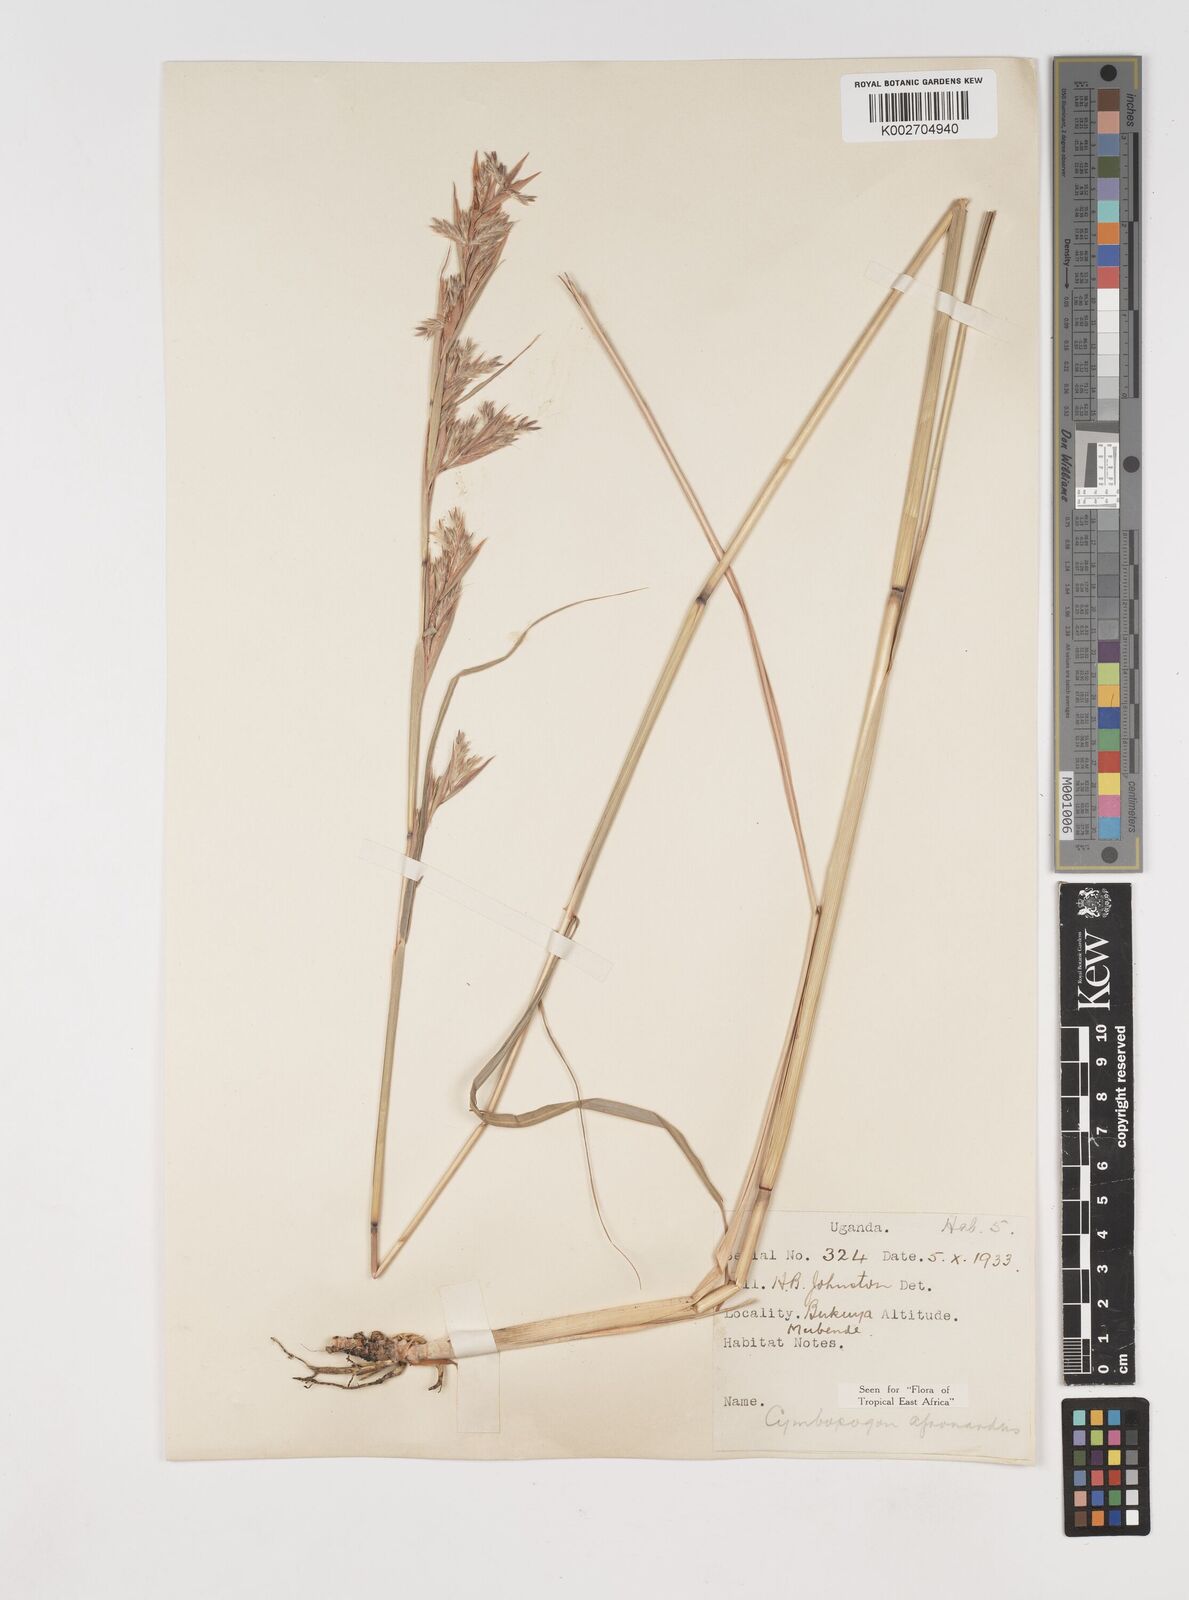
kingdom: Plantae
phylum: Tracheophyta
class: Liliopsida
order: Poales
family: Poaceae
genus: Cymbopogon
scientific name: Cymbopogon nardus
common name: Giant turpentine grass
